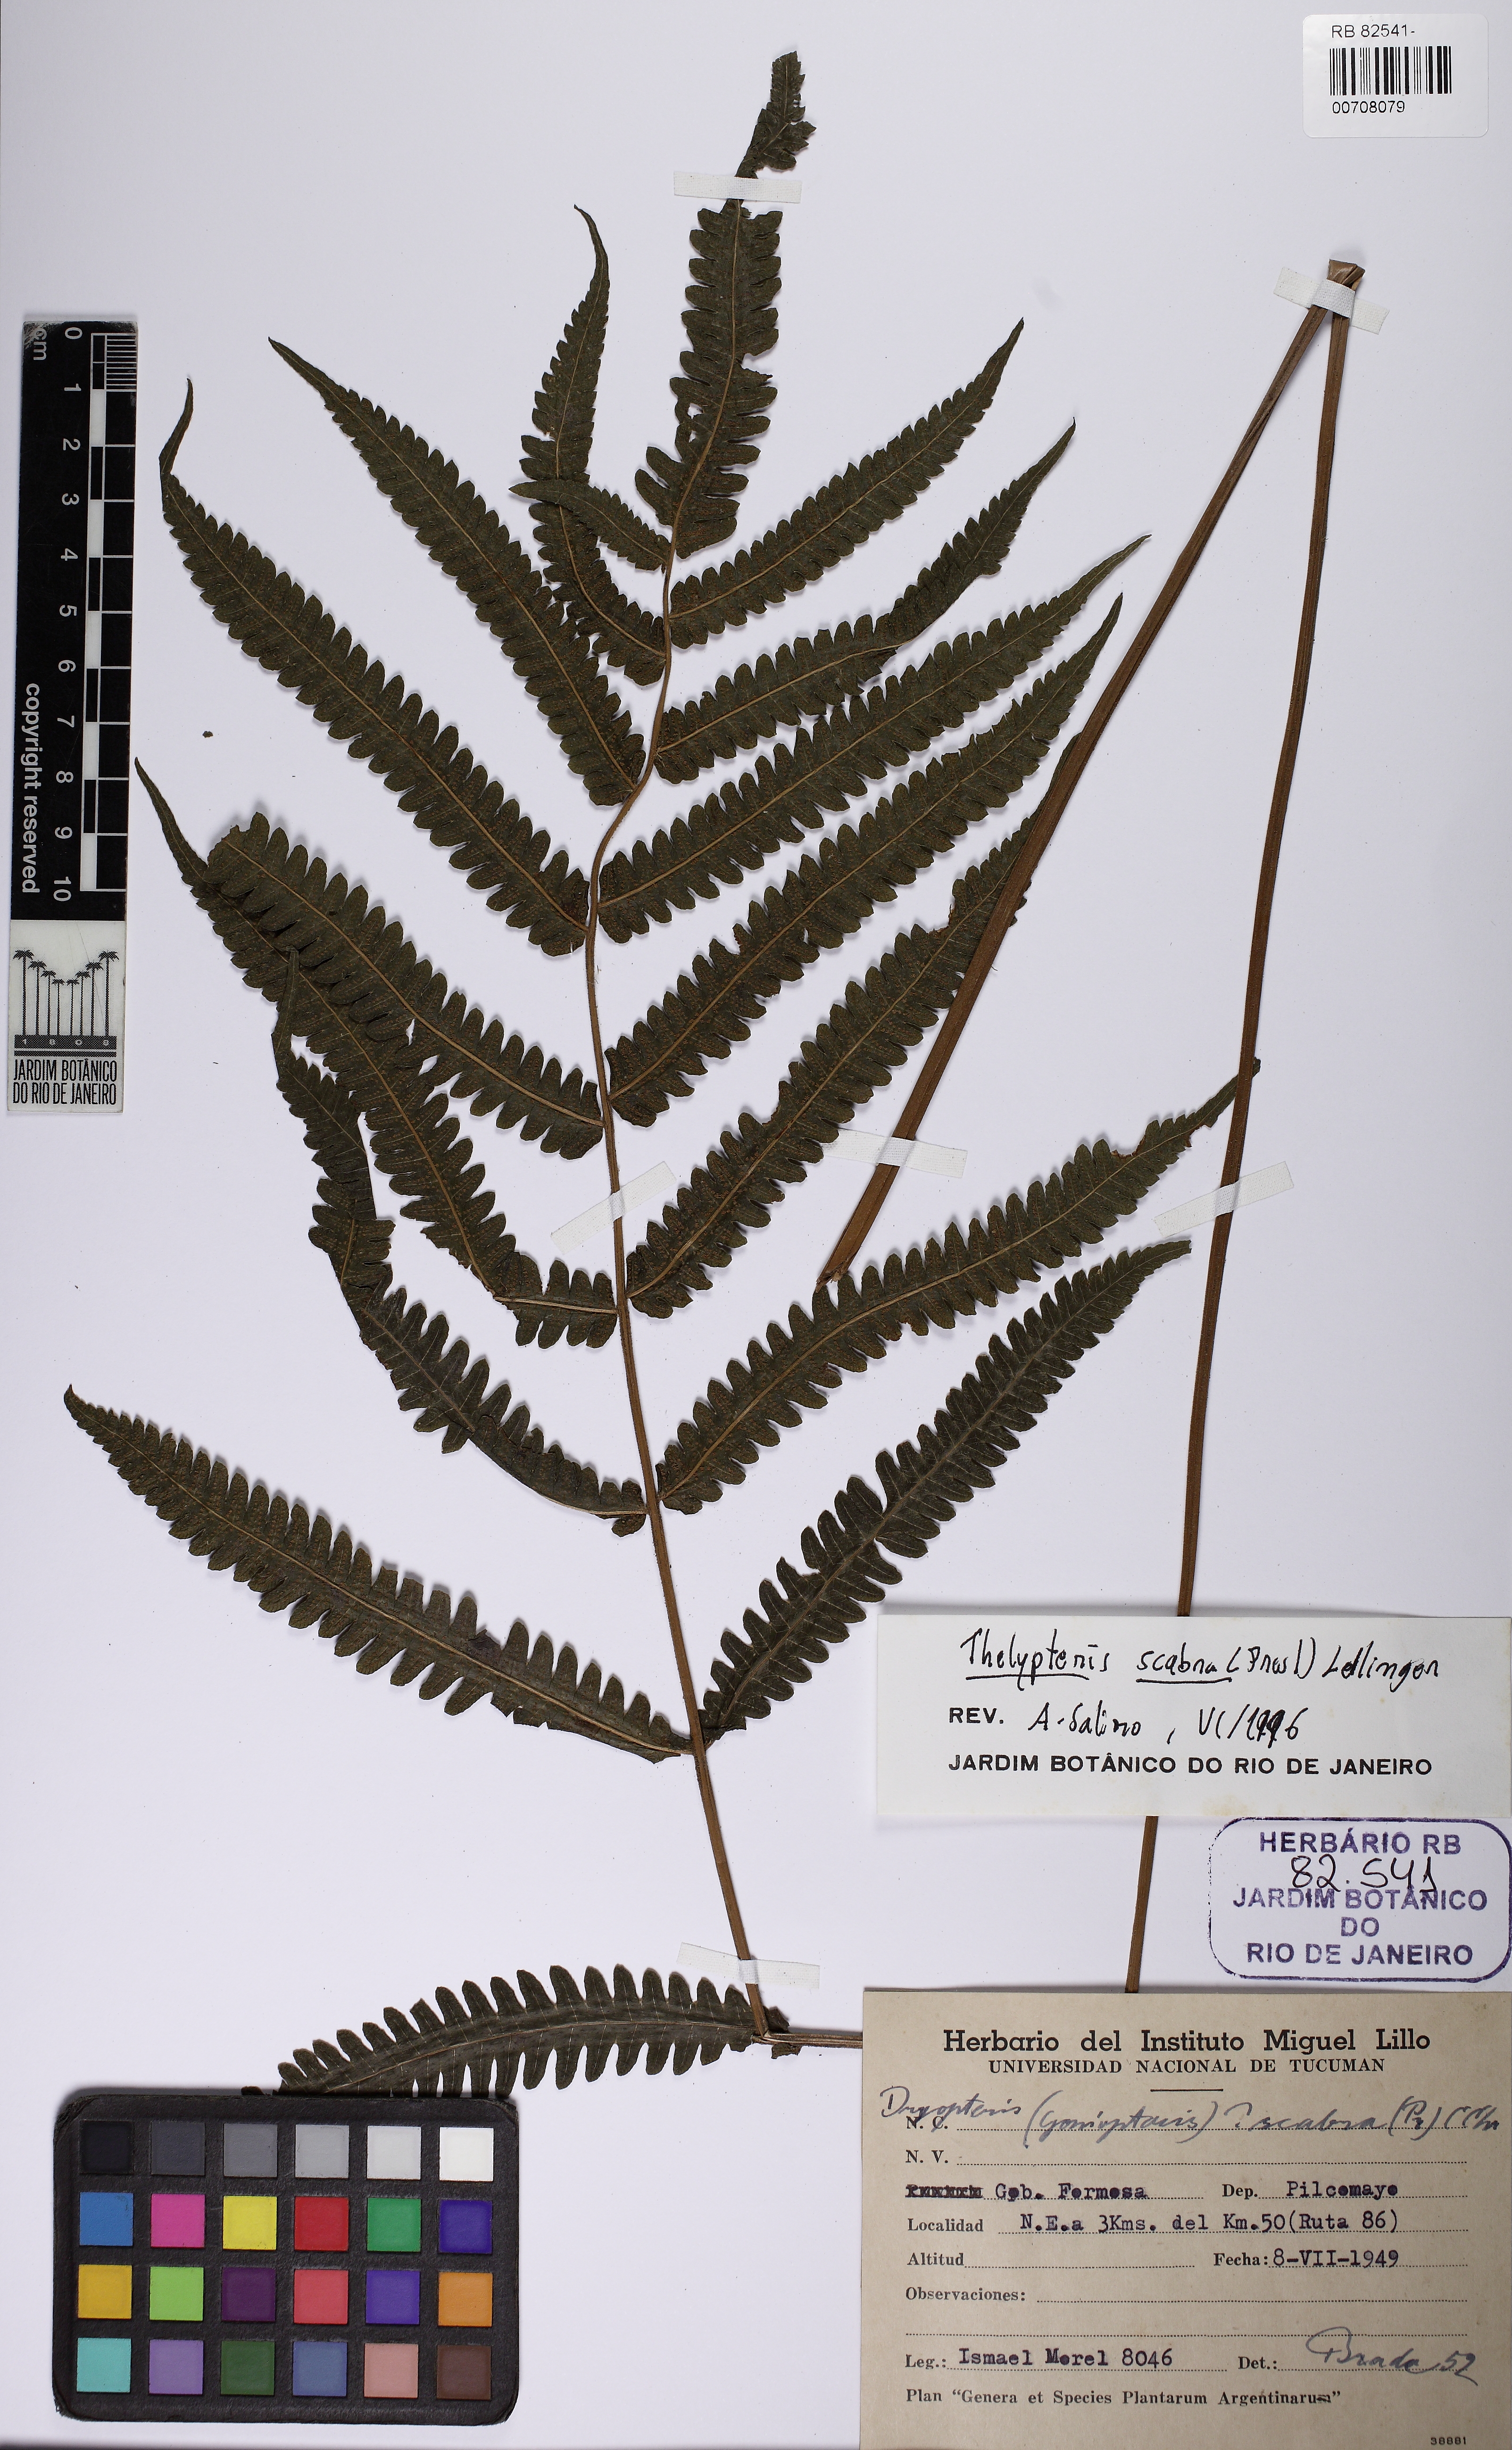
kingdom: Plantae
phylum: Tracheophyta
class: Polypodiopsida
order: Polypodiales
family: Thelypteridaceae
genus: Goniopteris
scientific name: Goniopteris scabra
